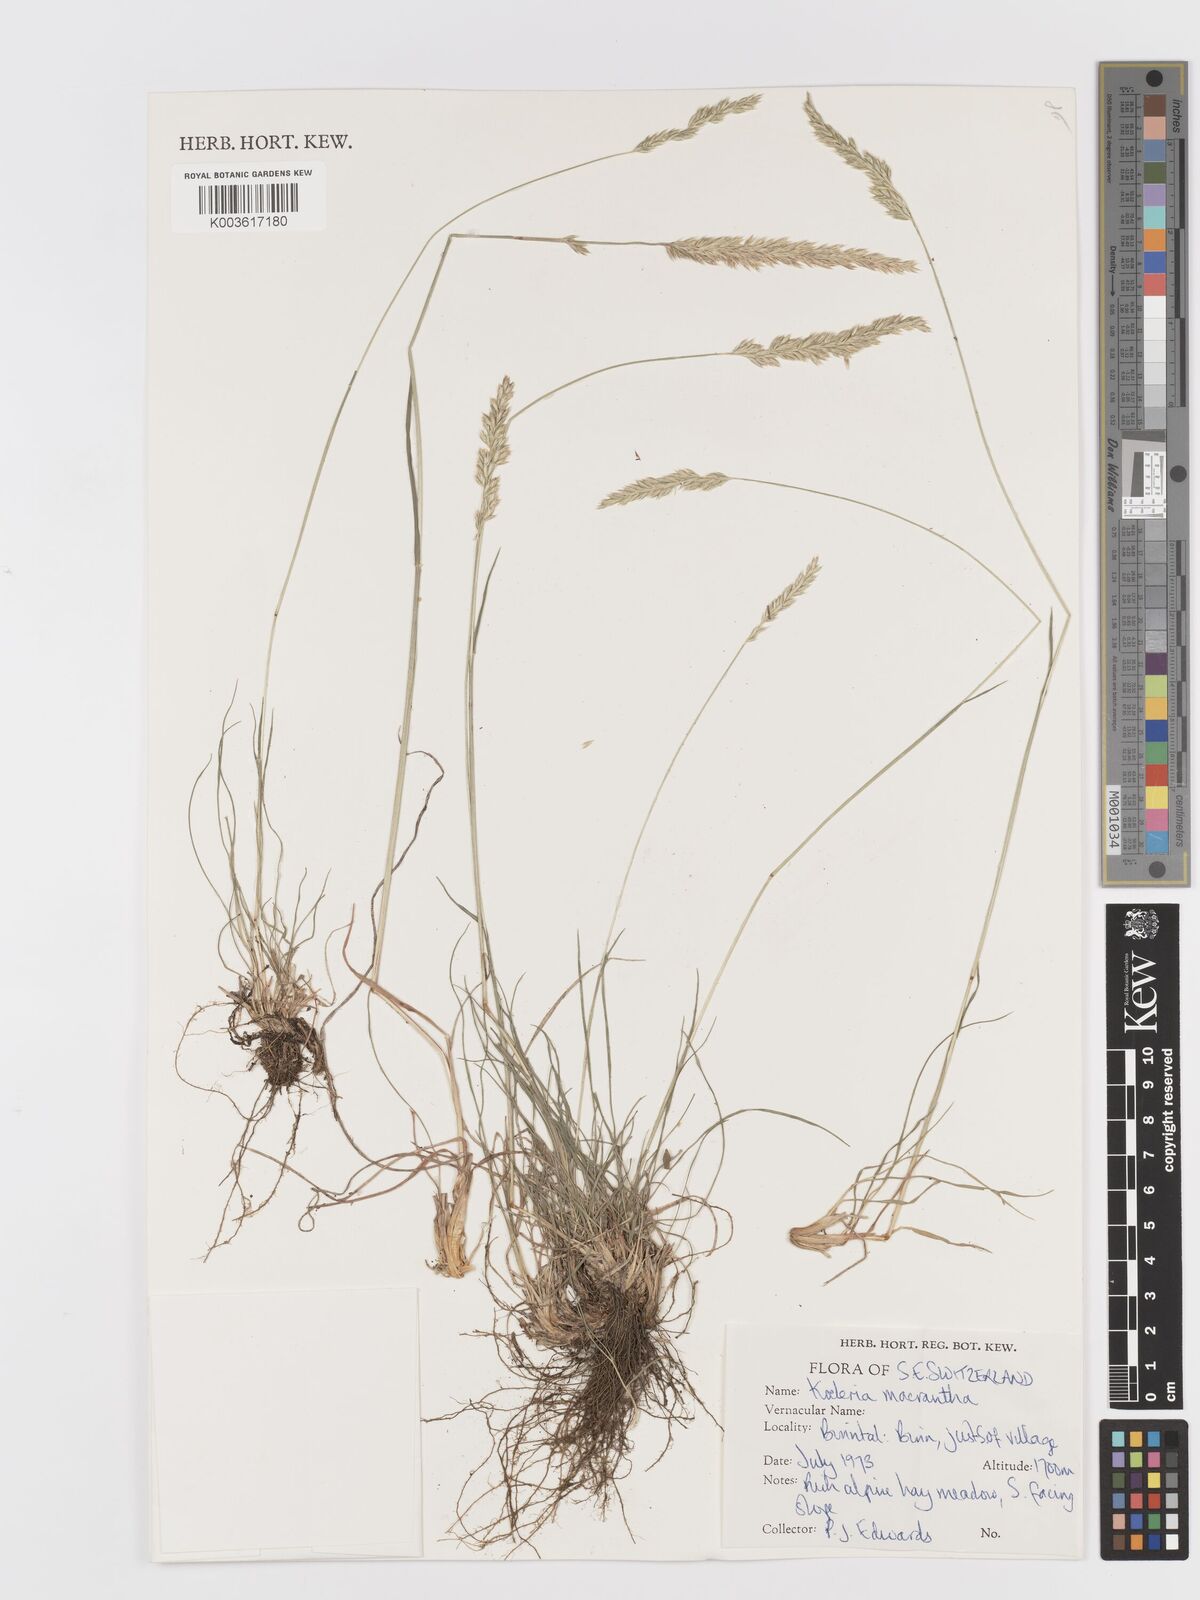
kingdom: Plantae
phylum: Tracheophyta
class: Liliopsida
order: Poales
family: Poaceae
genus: Koeleria
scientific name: Koeleria
